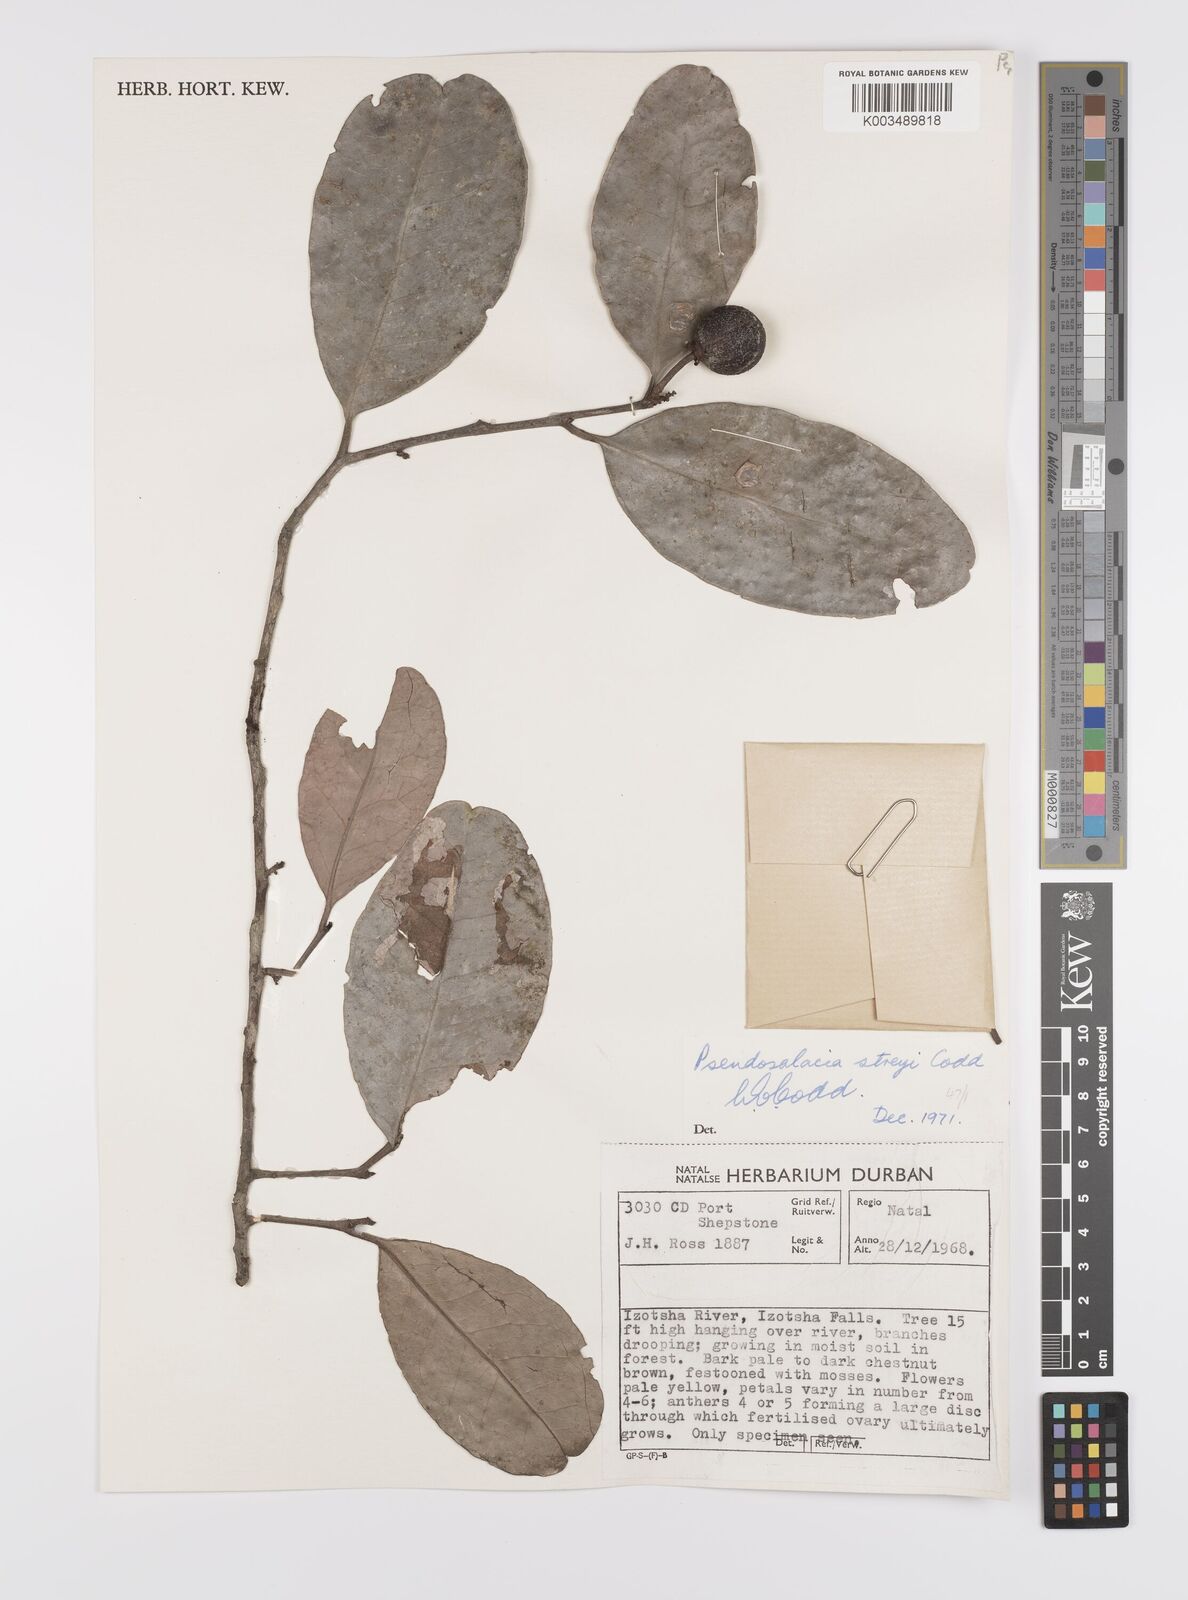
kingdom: Plantae
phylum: Tracheophyta
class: Magnoliopsida
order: Celastrales
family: Celastraceae
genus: Pseudosalacia
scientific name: Pseudosalacia streyi
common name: Bastard lemon
